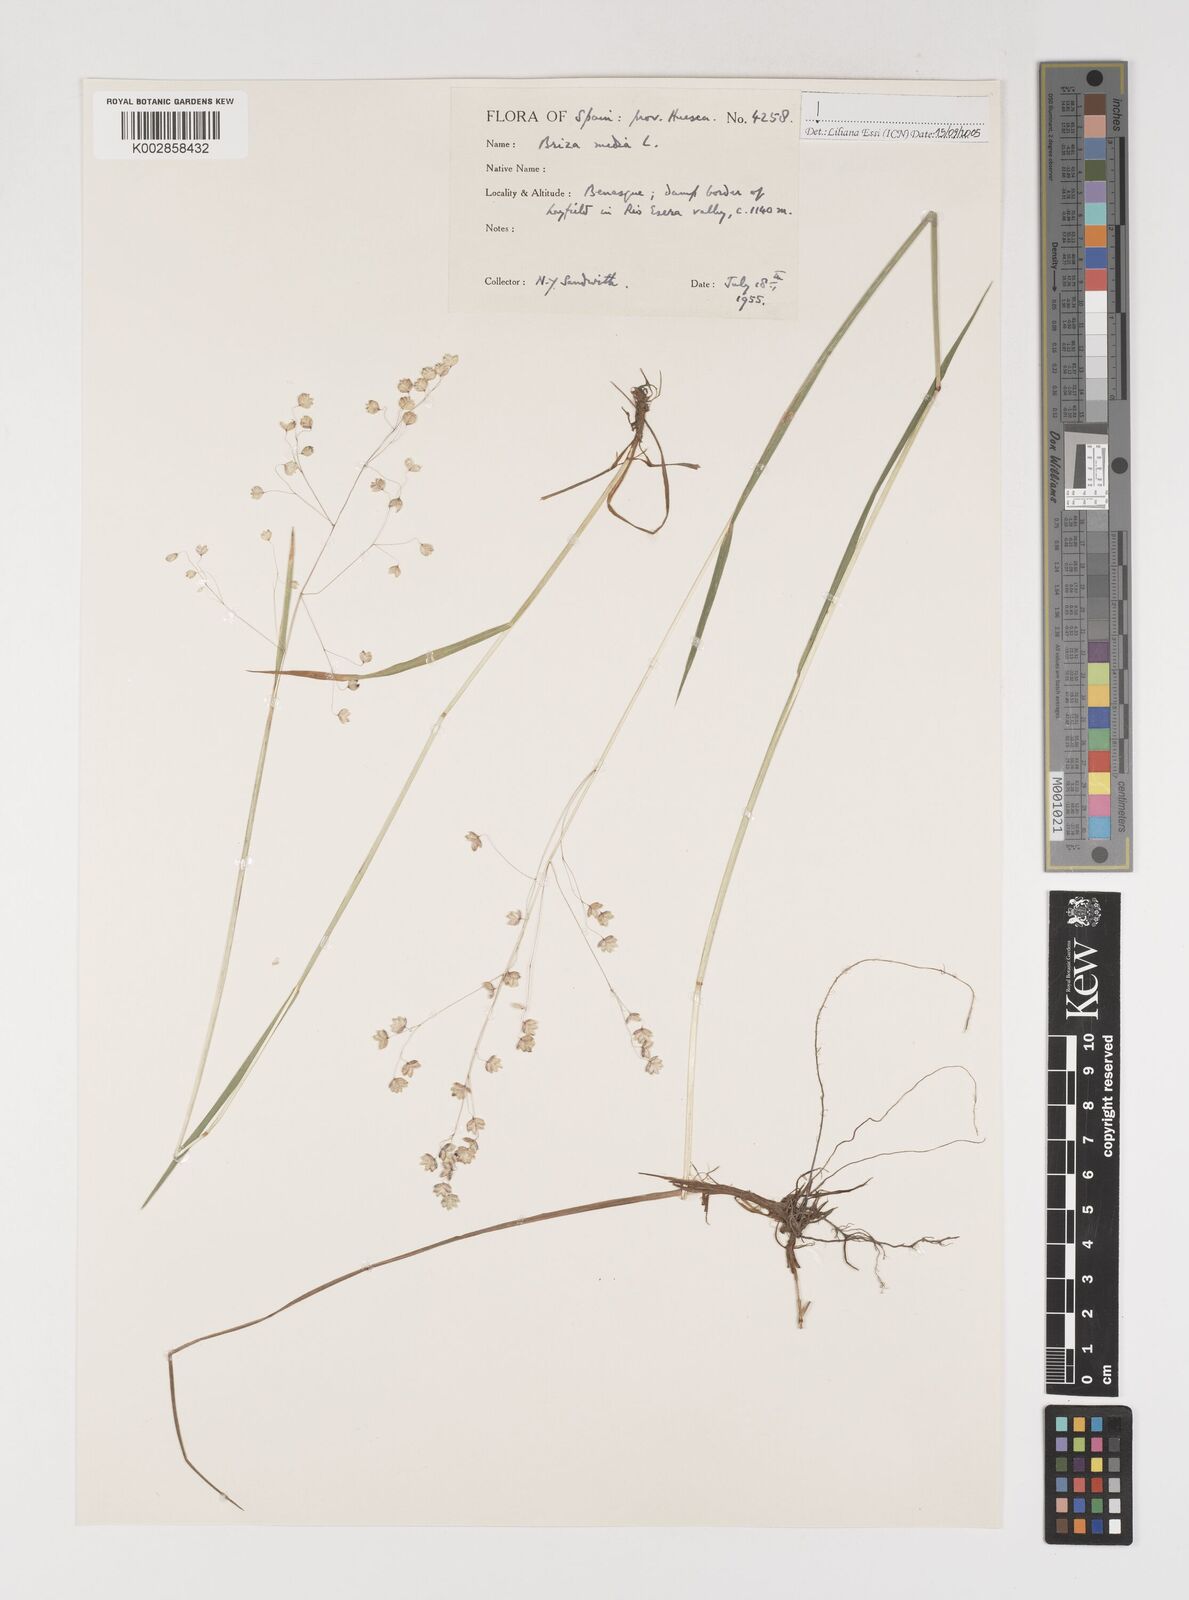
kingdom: Plantae
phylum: Tracheophyta
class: Liliopsida
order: Poales
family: Poaceae
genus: Briza
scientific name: Briza media
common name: Quaking grass
